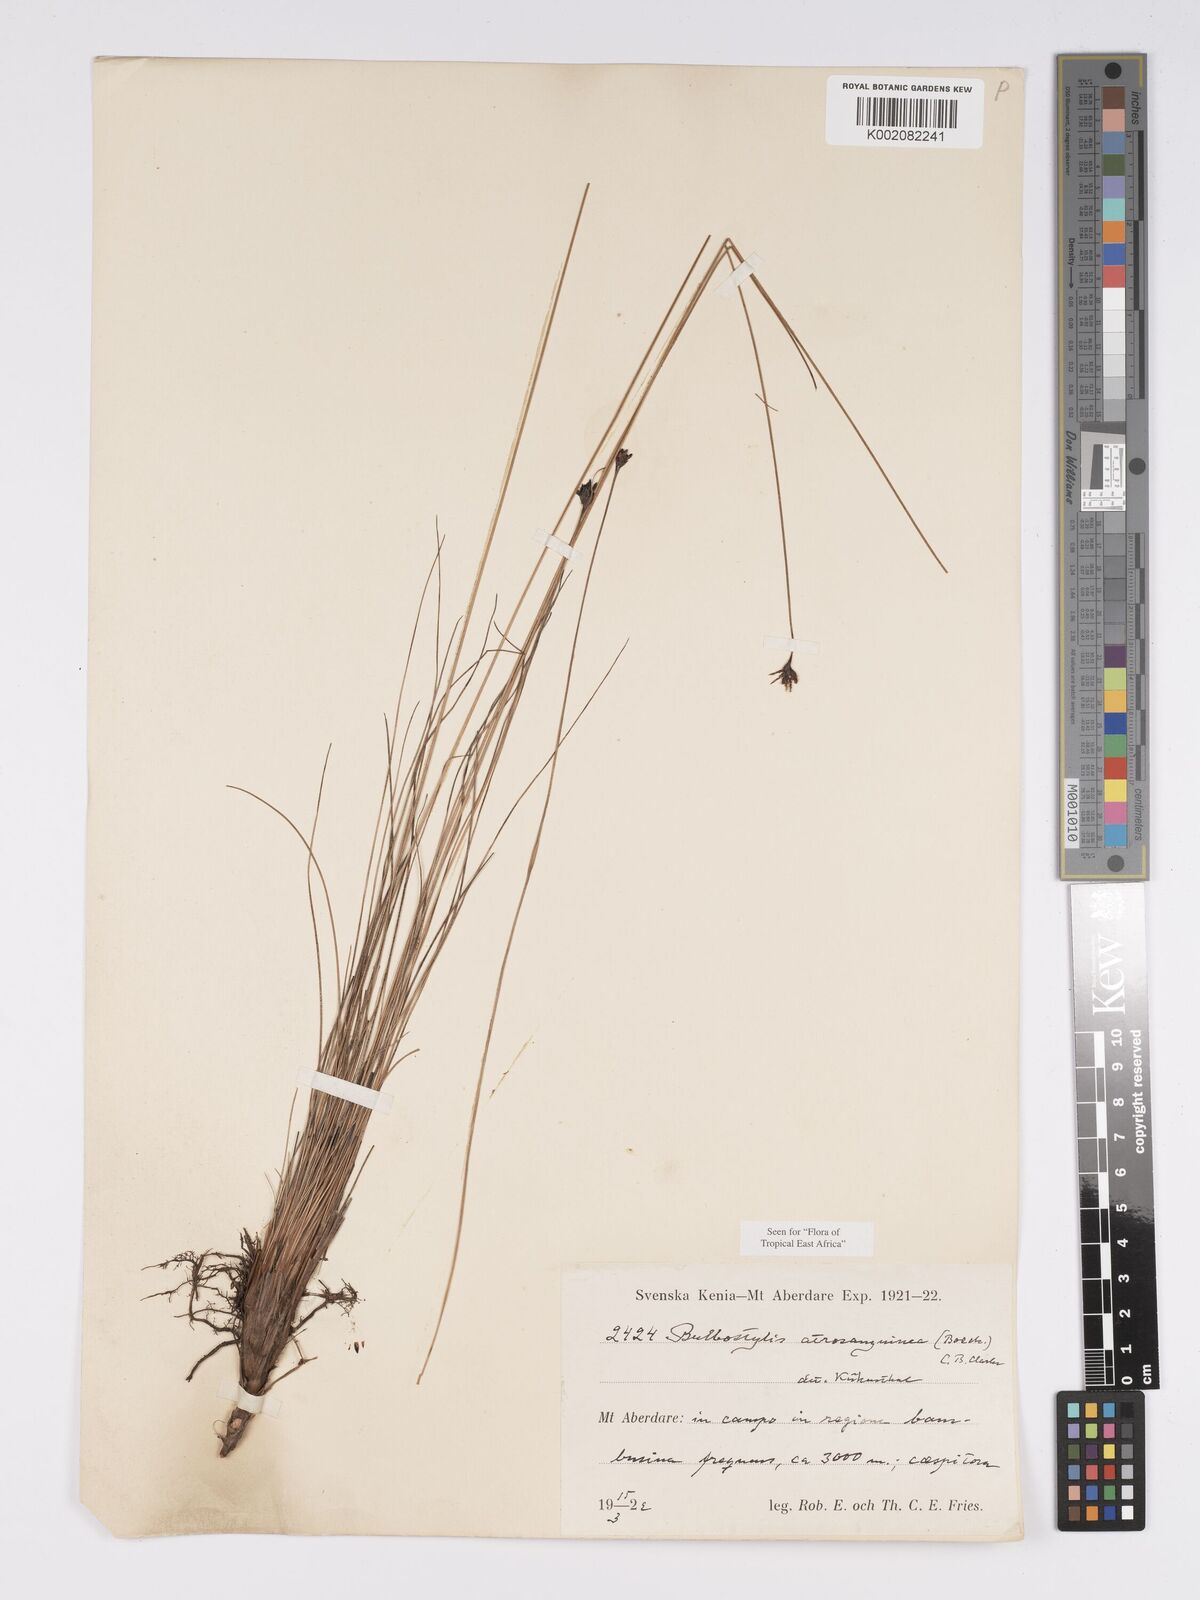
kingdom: Plantae
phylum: Tracheophyta
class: Liliopsida
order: Poales
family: Cyperaceae
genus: Bulbostylis
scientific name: Bulbostylis atrosanguinea
